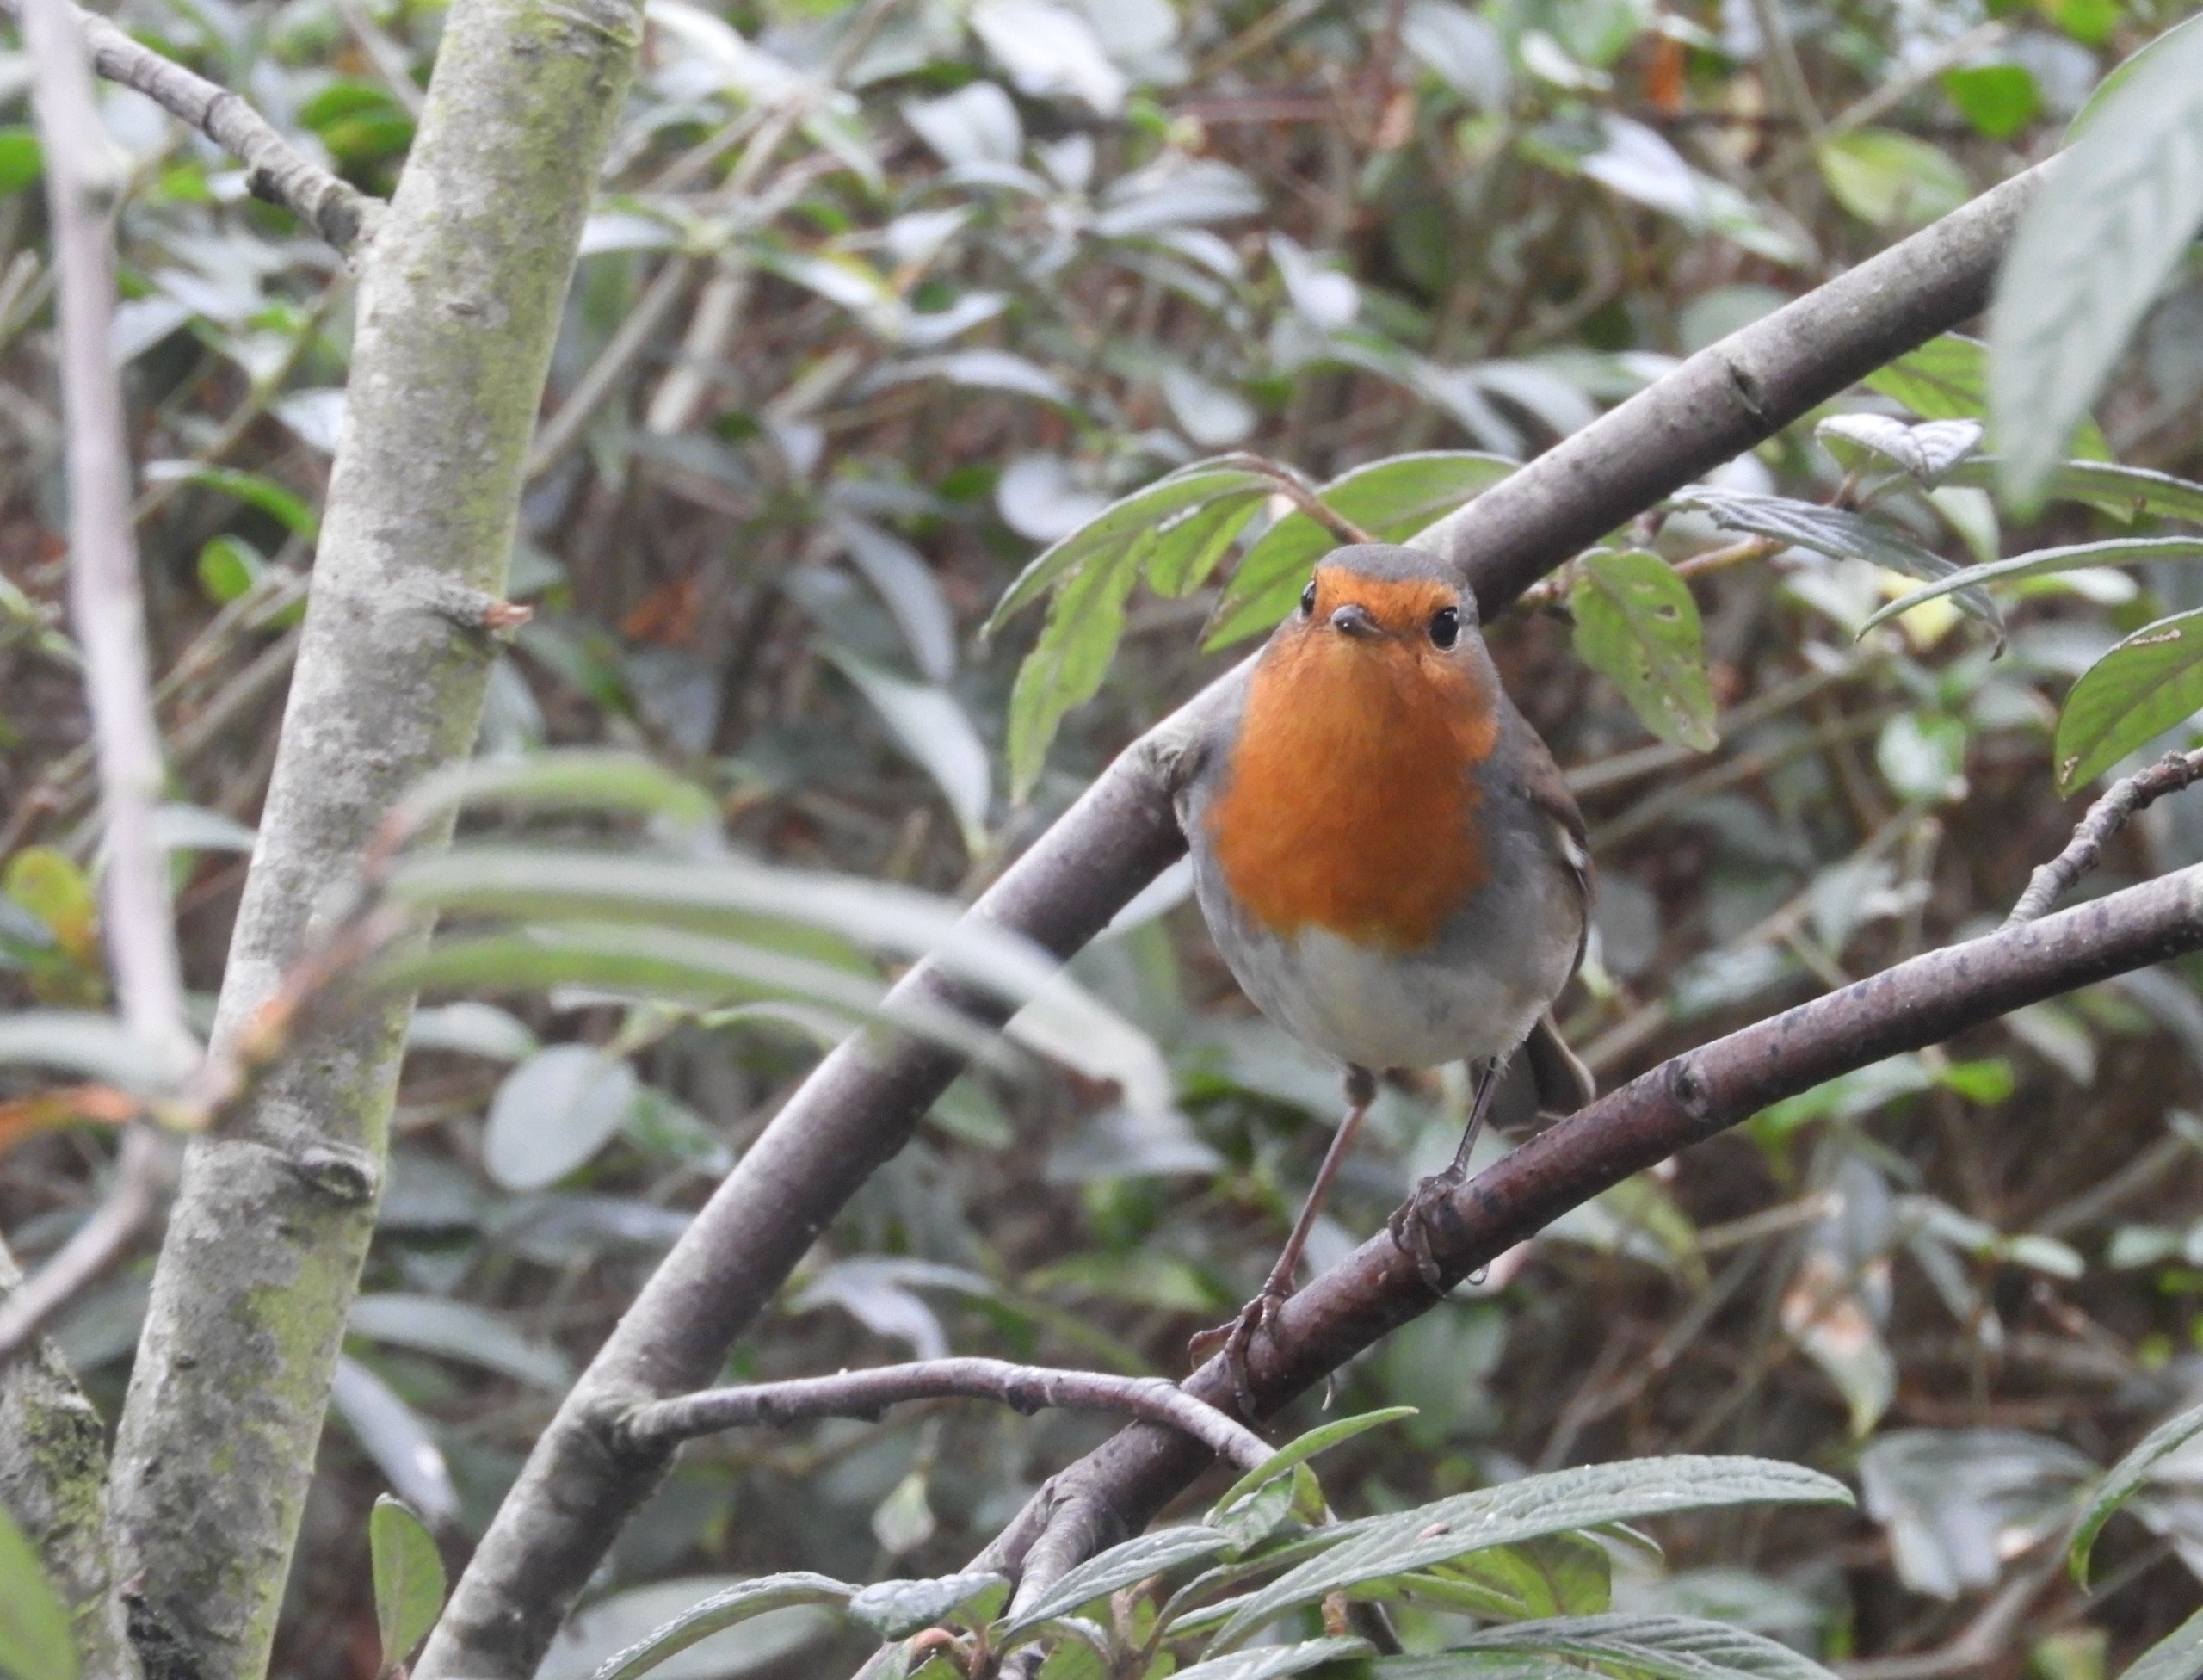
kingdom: Animalia
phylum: Chordata
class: Aves
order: Passeriformes
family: Muscicapidae
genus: Erithacus
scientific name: Erithacus rubecula
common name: Rødhals/rødkælk
